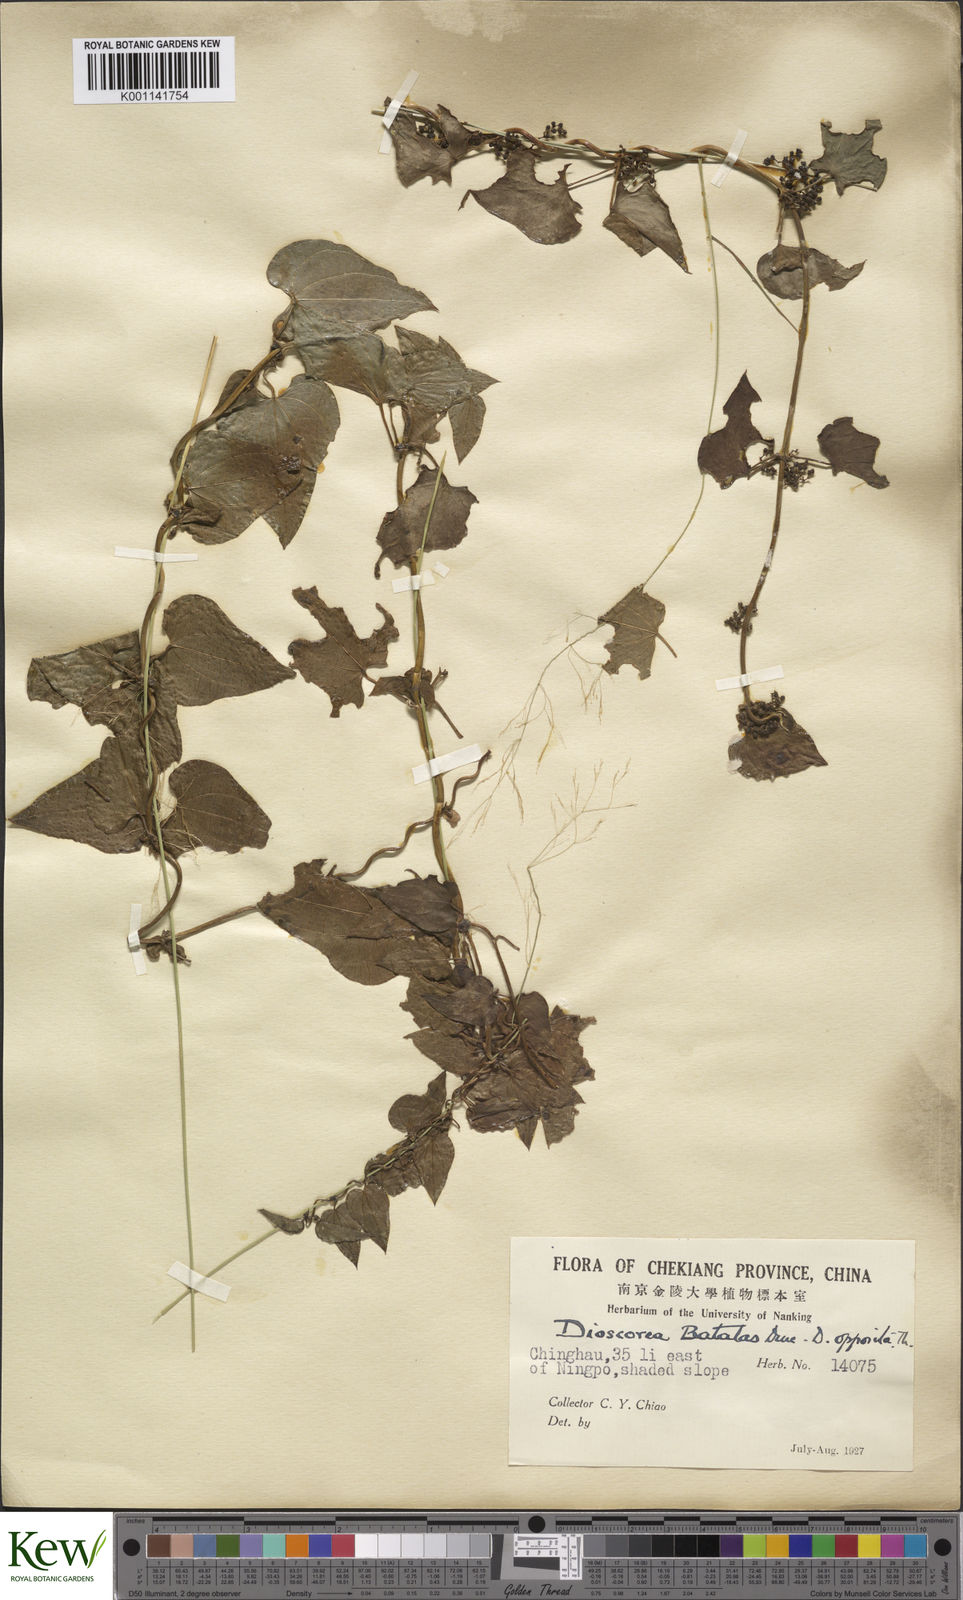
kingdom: Plantae
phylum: Tracheophyta
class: Liliopsida
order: Dioscoreales
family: Dioscoreaceae
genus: Dioscorea
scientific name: Dioscorea oppositifolia
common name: Chinese yam
